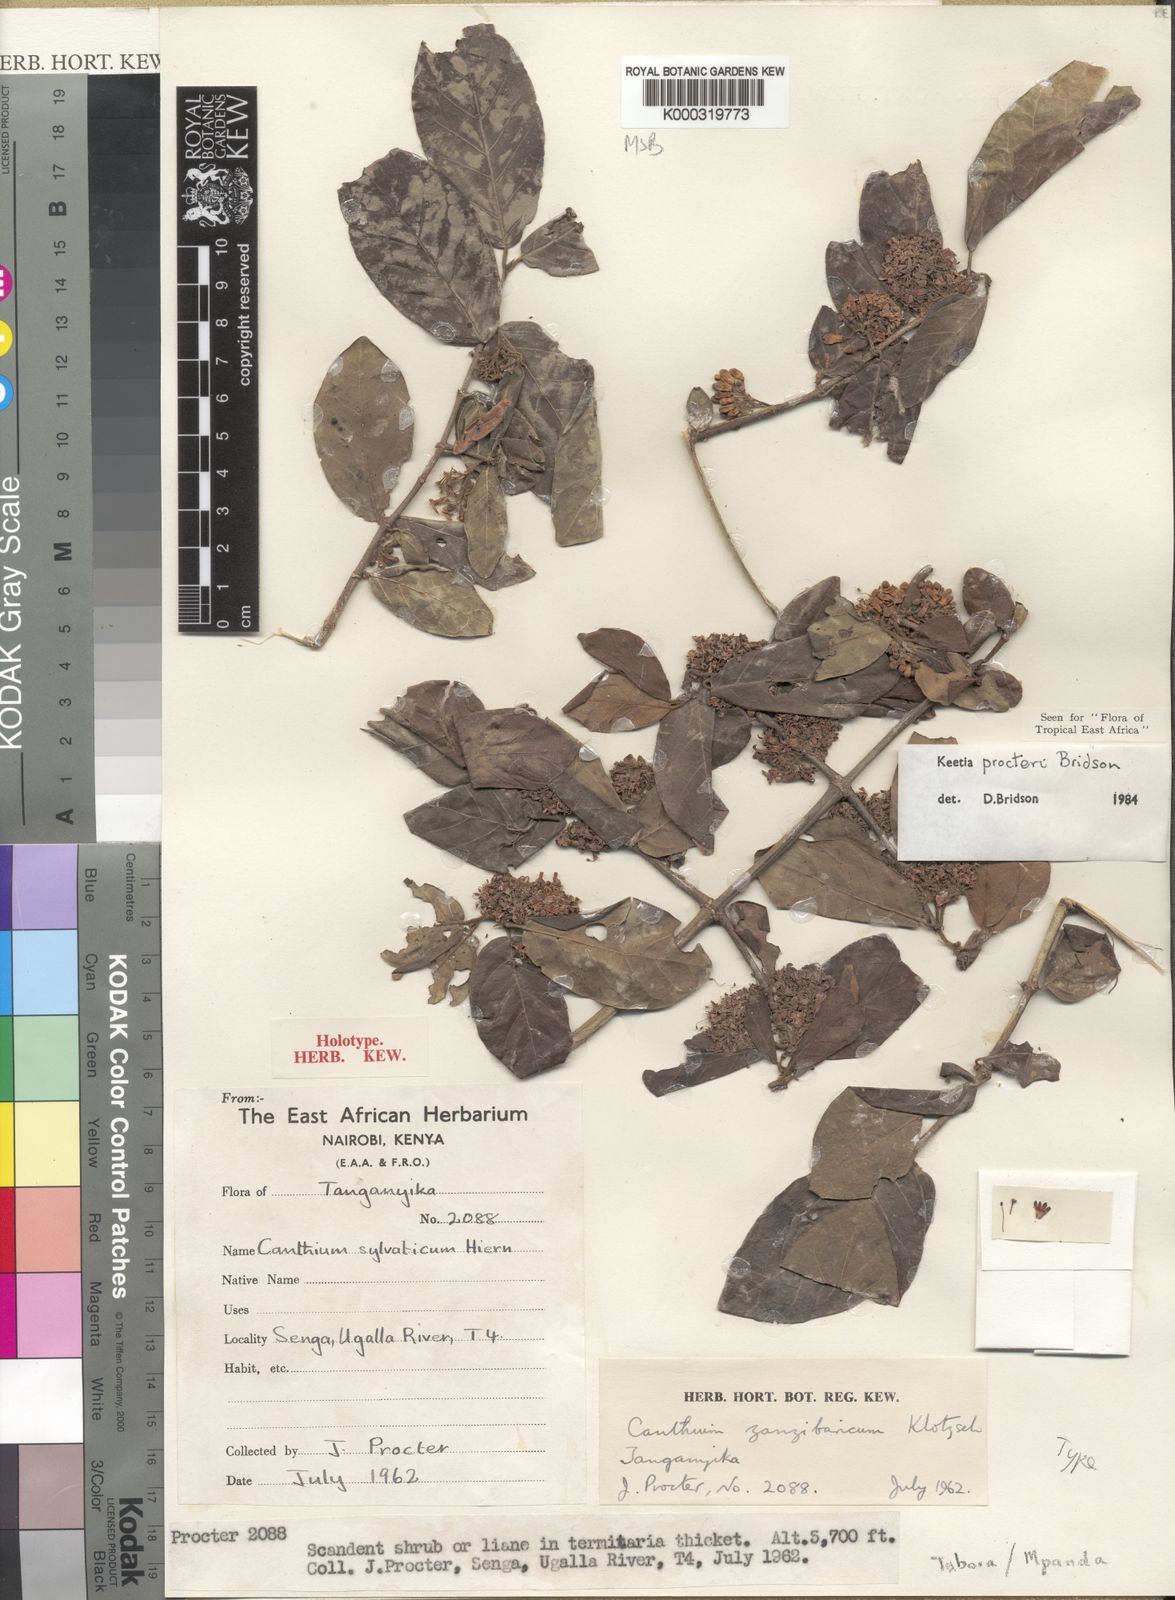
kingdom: Plantae
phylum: Tracheophyta
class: Magnoliopsida
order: Gentianales
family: Rubiaceae
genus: Keetia
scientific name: Keetia procteri
